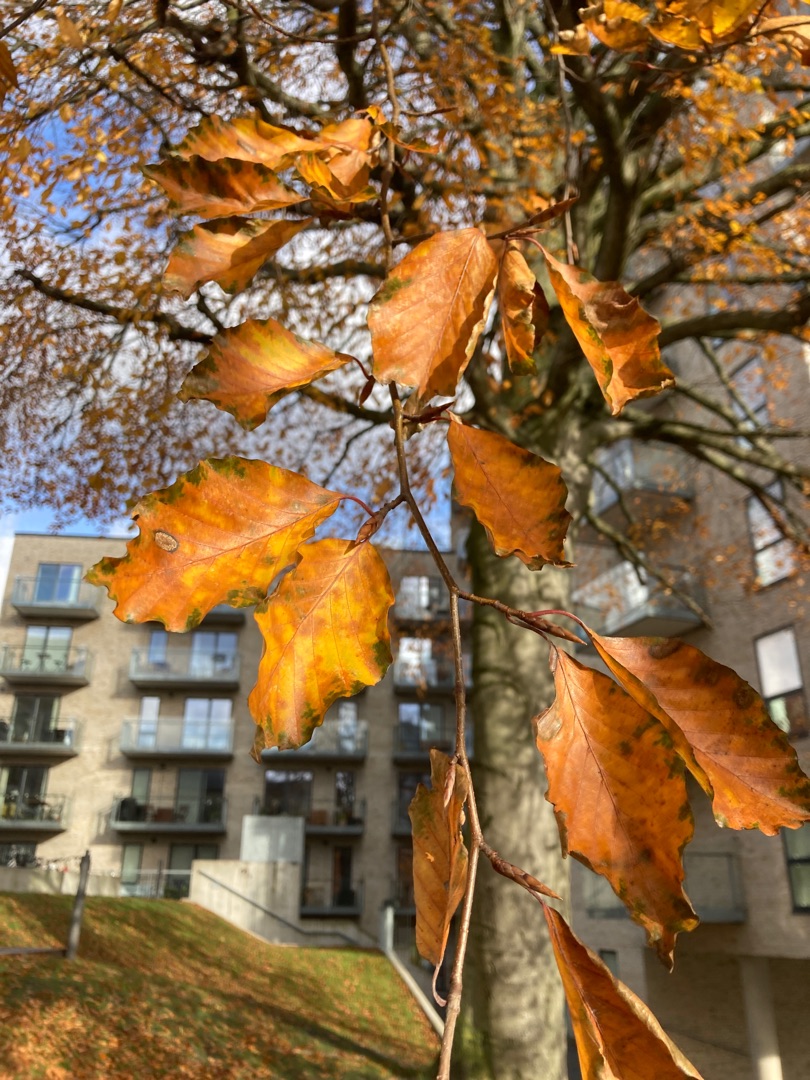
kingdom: Plantae
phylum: Tracheophyta
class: Magnoliopsida
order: Fagales
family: Fagaceae
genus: Fagus
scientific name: Fagus sylvatica
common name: Bøg
